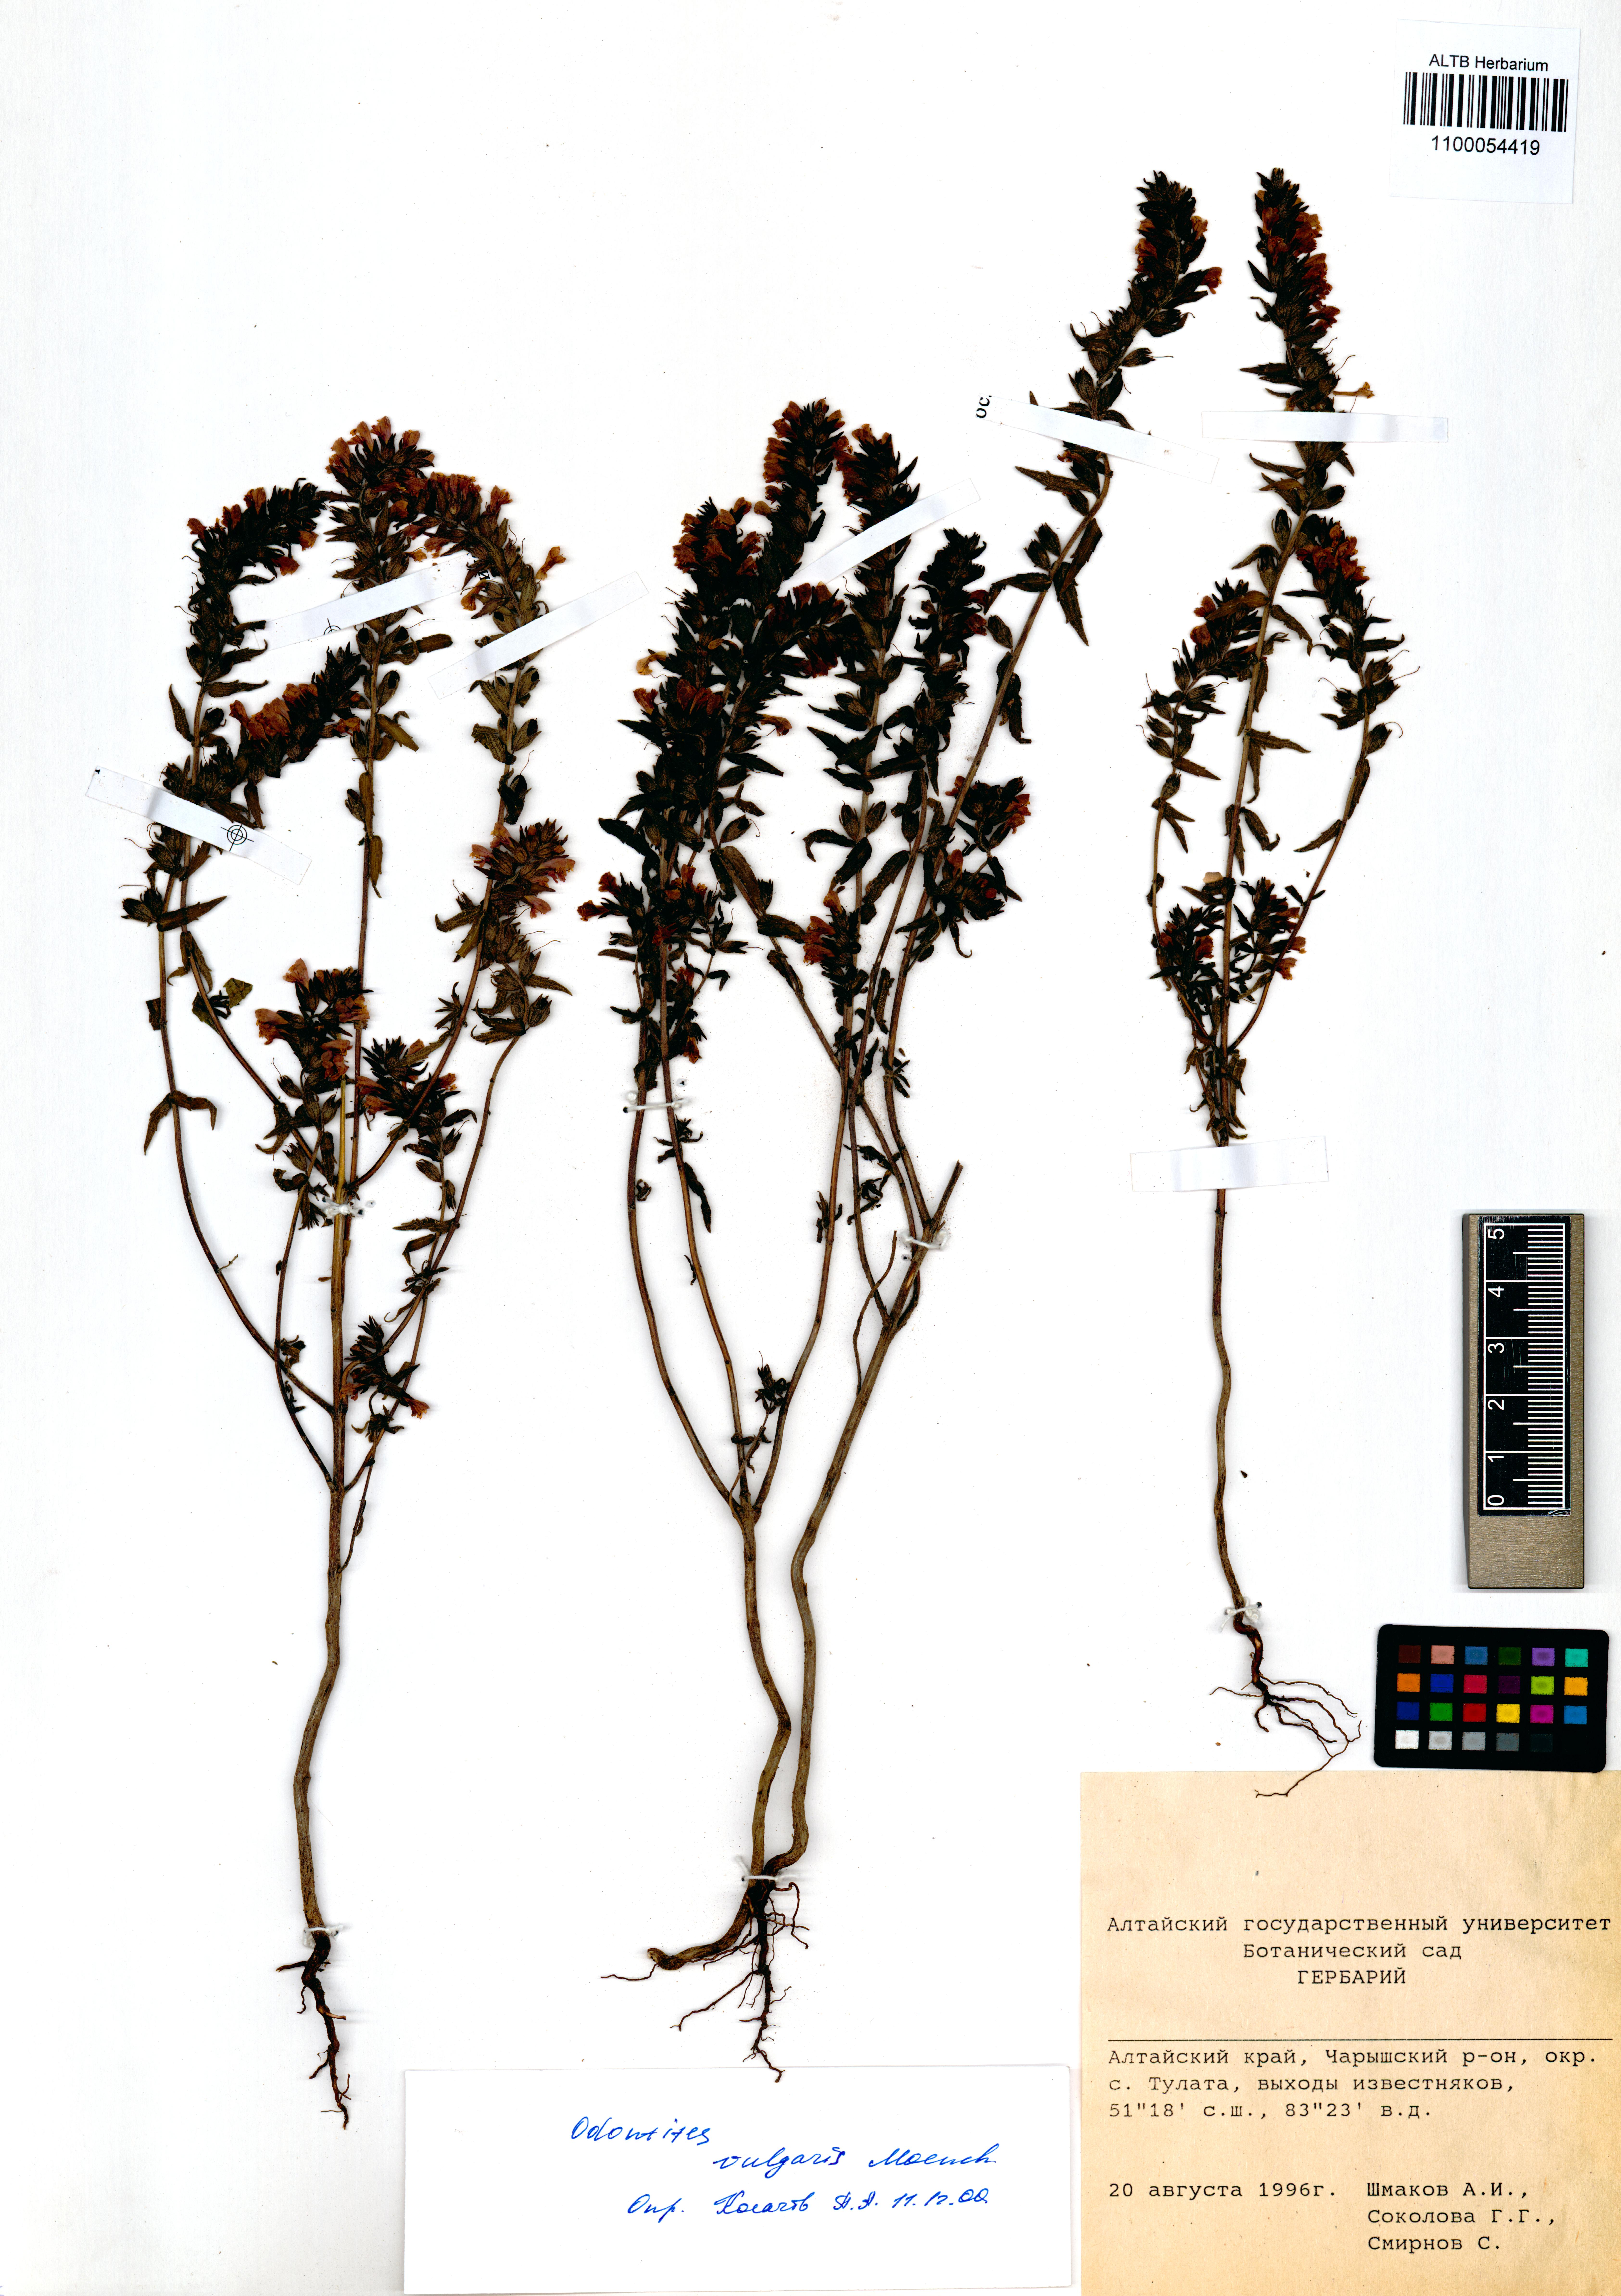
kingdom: Plantae
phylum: Tracheophyta
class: Magnoliopsida
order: Lamiales
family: Orobanchaceae
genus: Odontites
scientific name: Odontites vulgaris
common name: Broomrape
